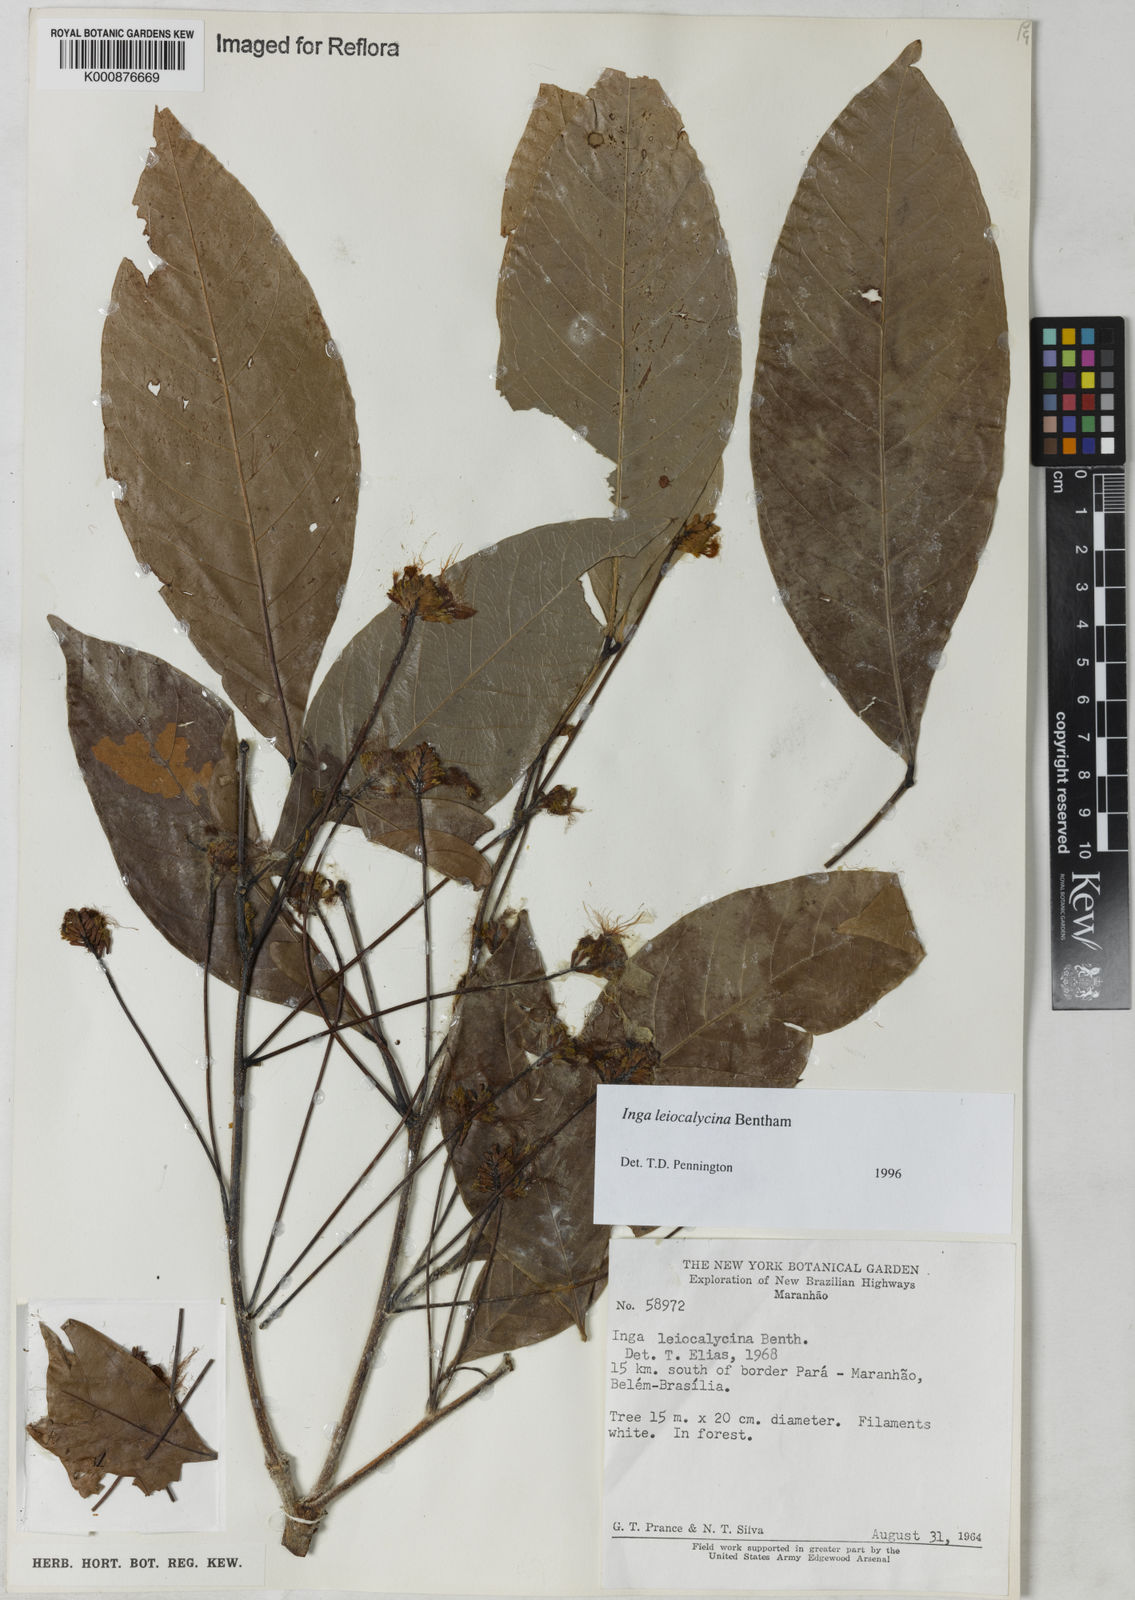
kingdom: Plantae
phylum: Tracheophyta
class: Magnoliopsida
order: Fabales
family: Fabaceae
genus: Inga
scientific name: Inga laevigata
